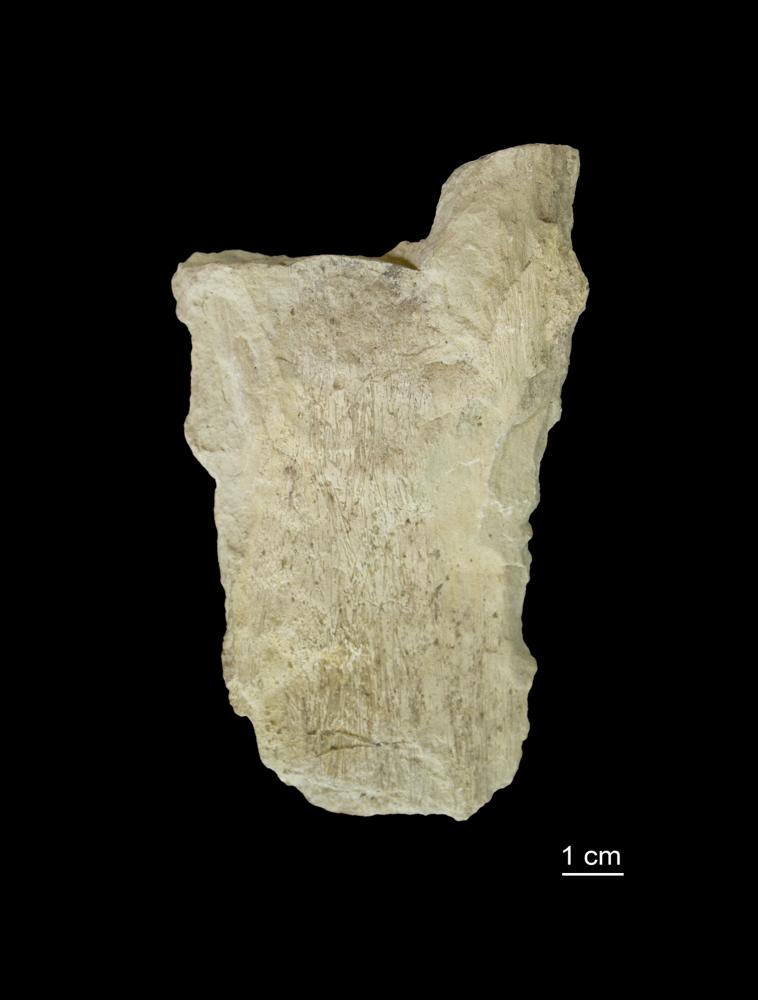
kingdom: Animalia
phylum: Porifera
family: Astylospongiidae
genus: Astylospongia
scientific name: Astylospongia
